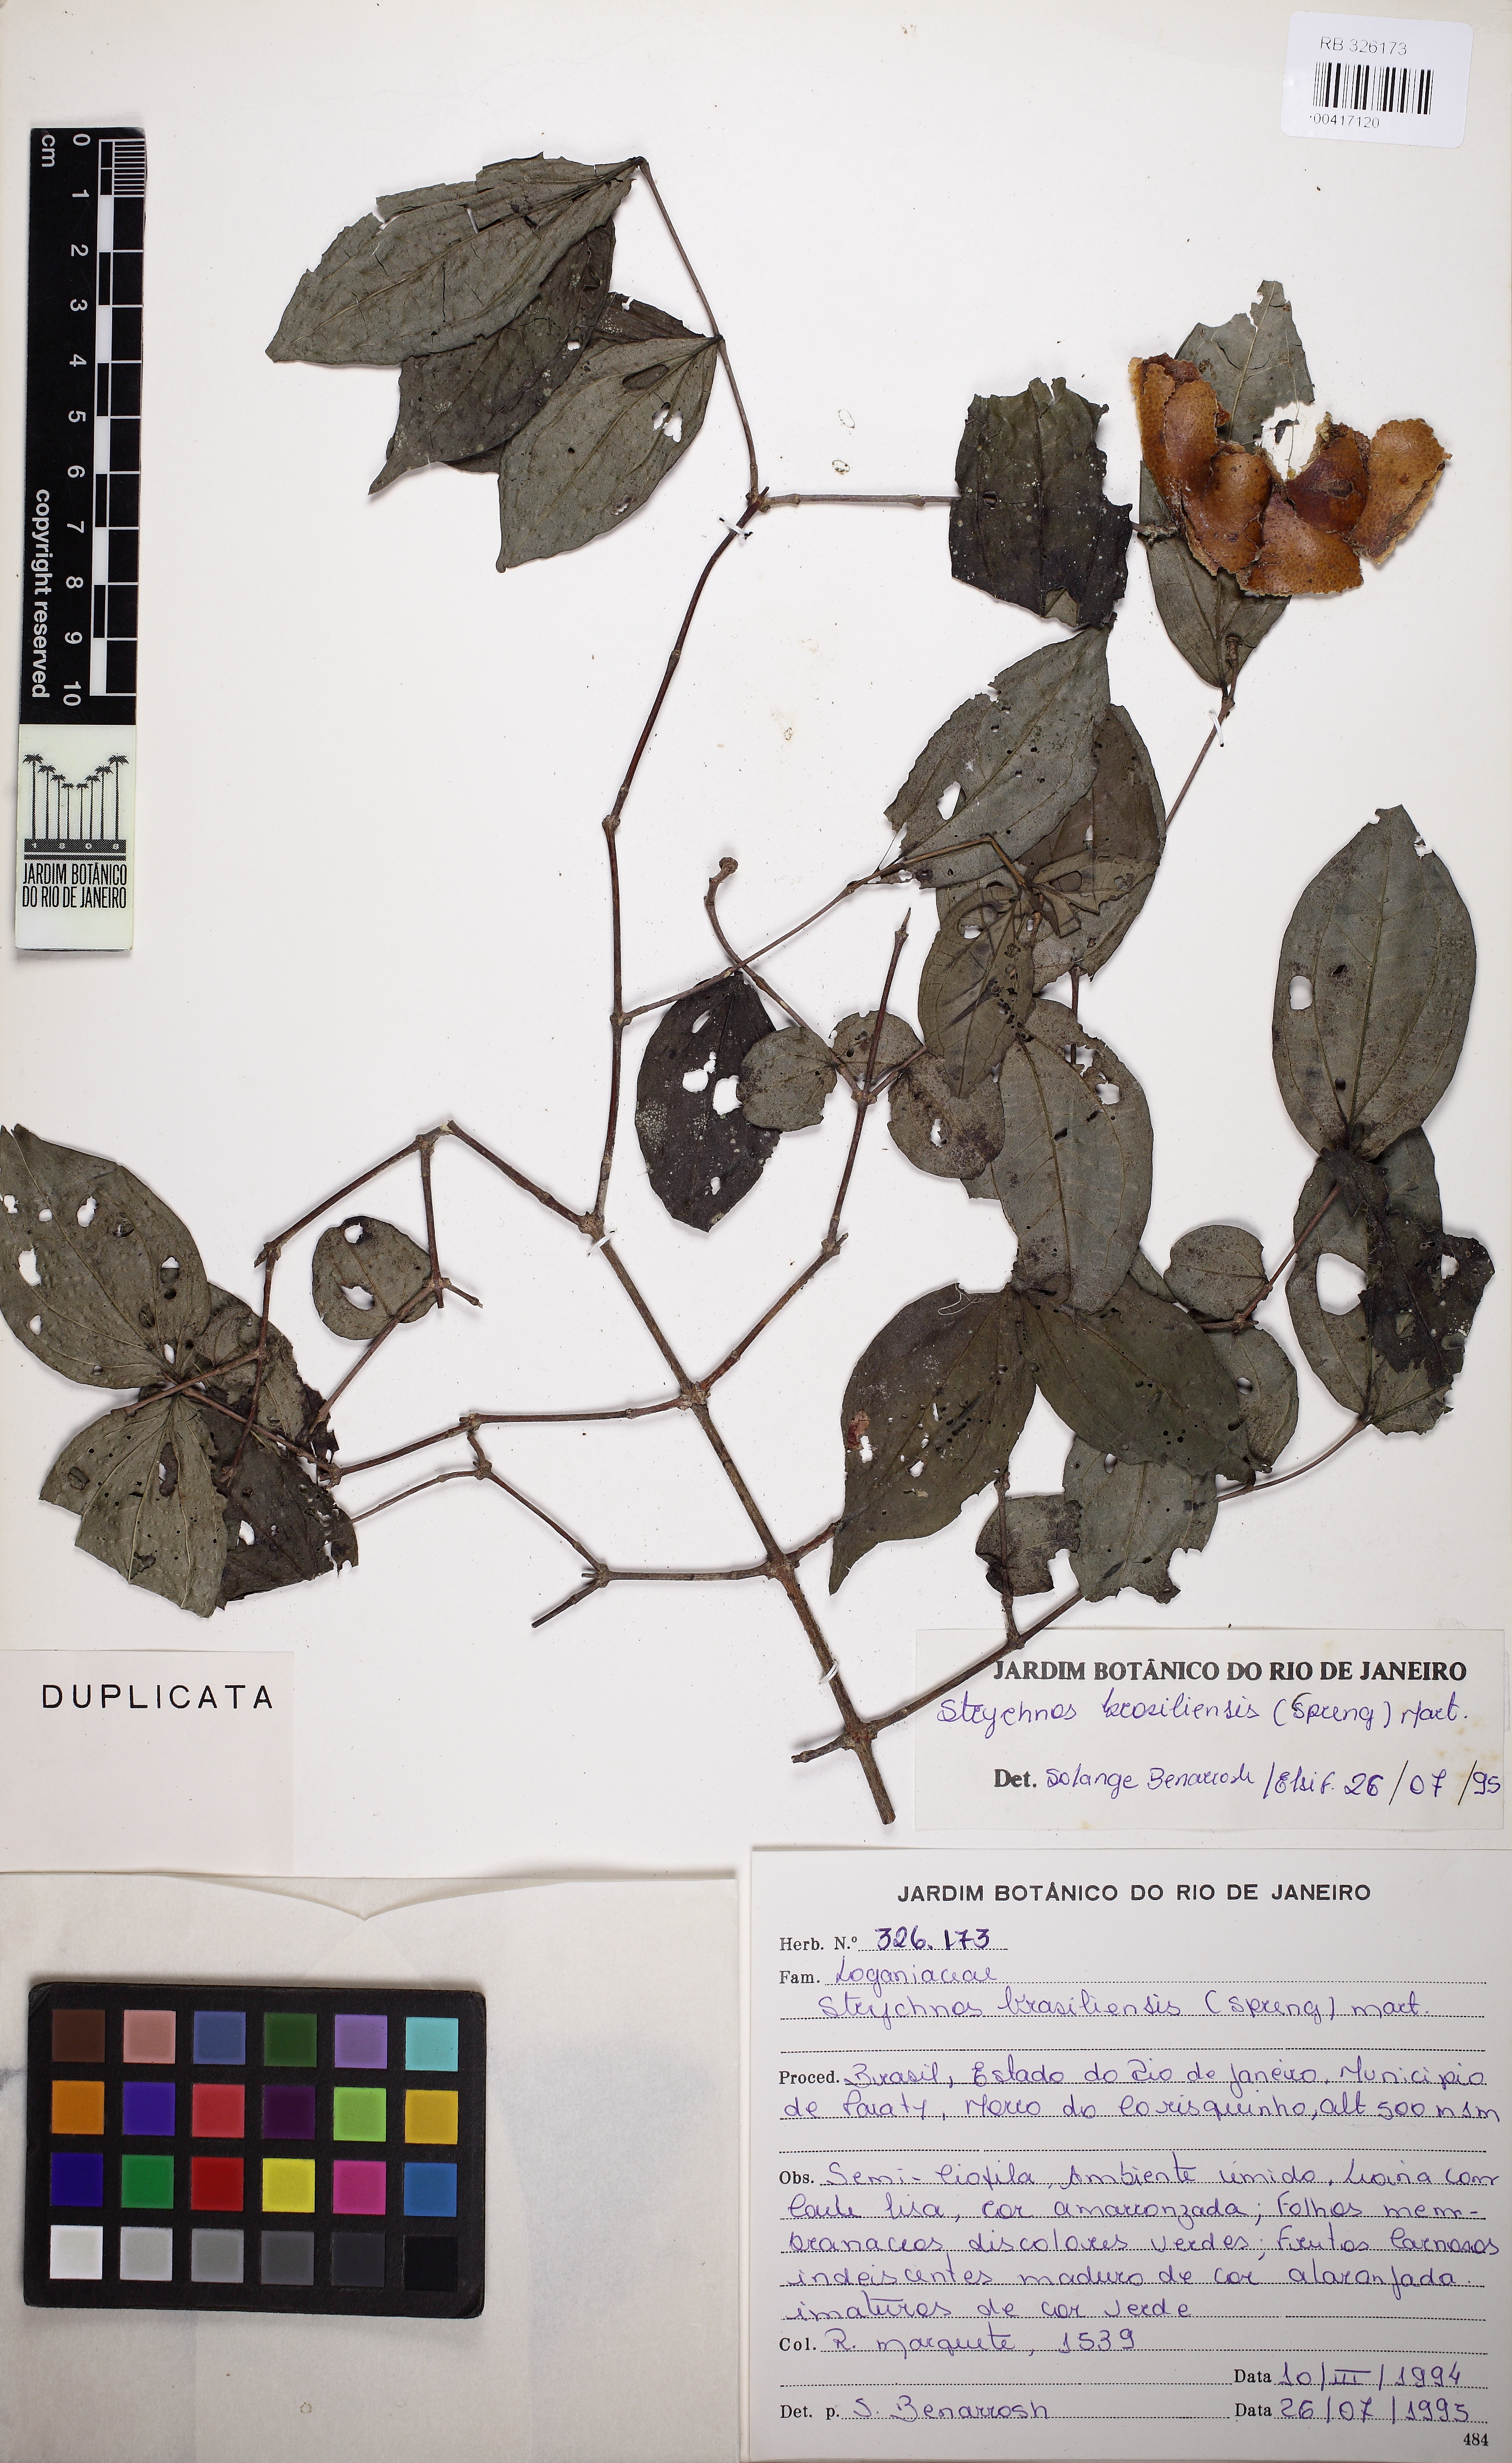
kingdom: Plantae
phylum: Tracheophyta
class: Magnoliopsida
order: Gentianales
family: Loganiaceae
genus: Strychnos
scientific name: Strychnos brasiliensis
